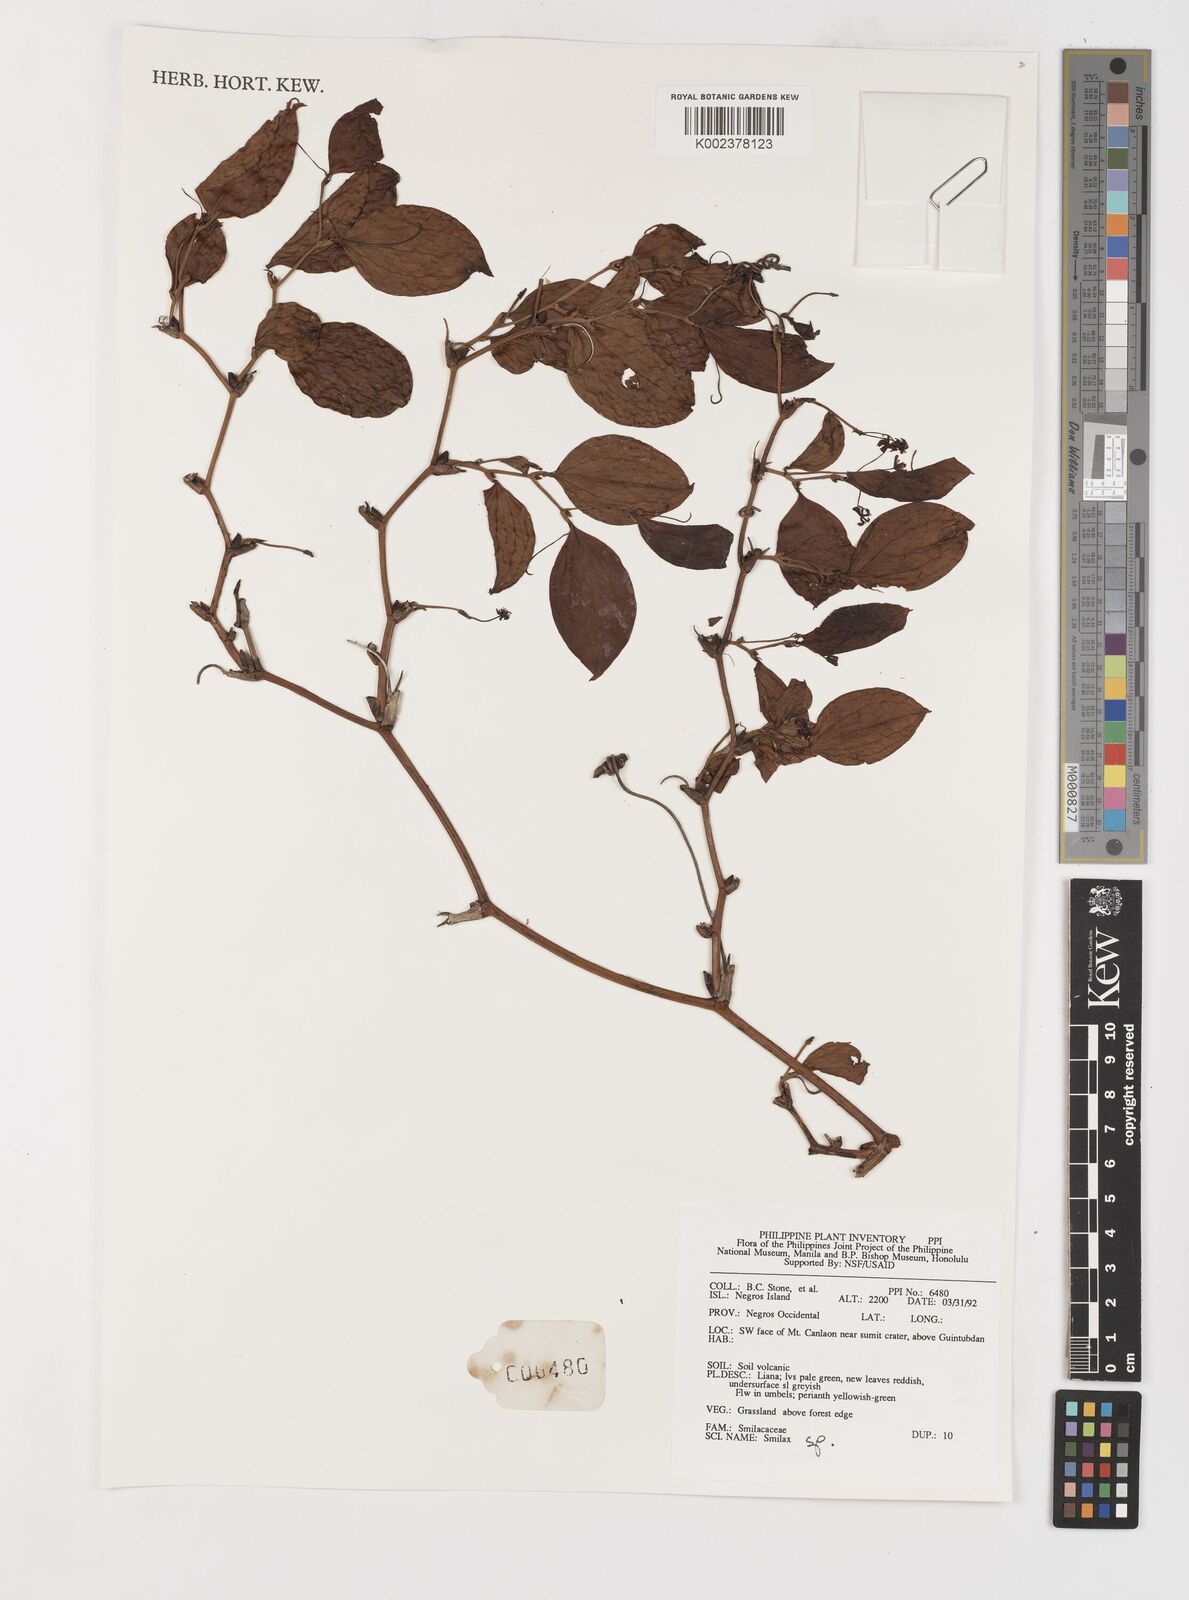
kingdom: Plantae
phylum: Tracheophyta
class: Liliopsida
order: Liliales
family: Smilacaceae
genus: Smilax
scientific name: Smilax
